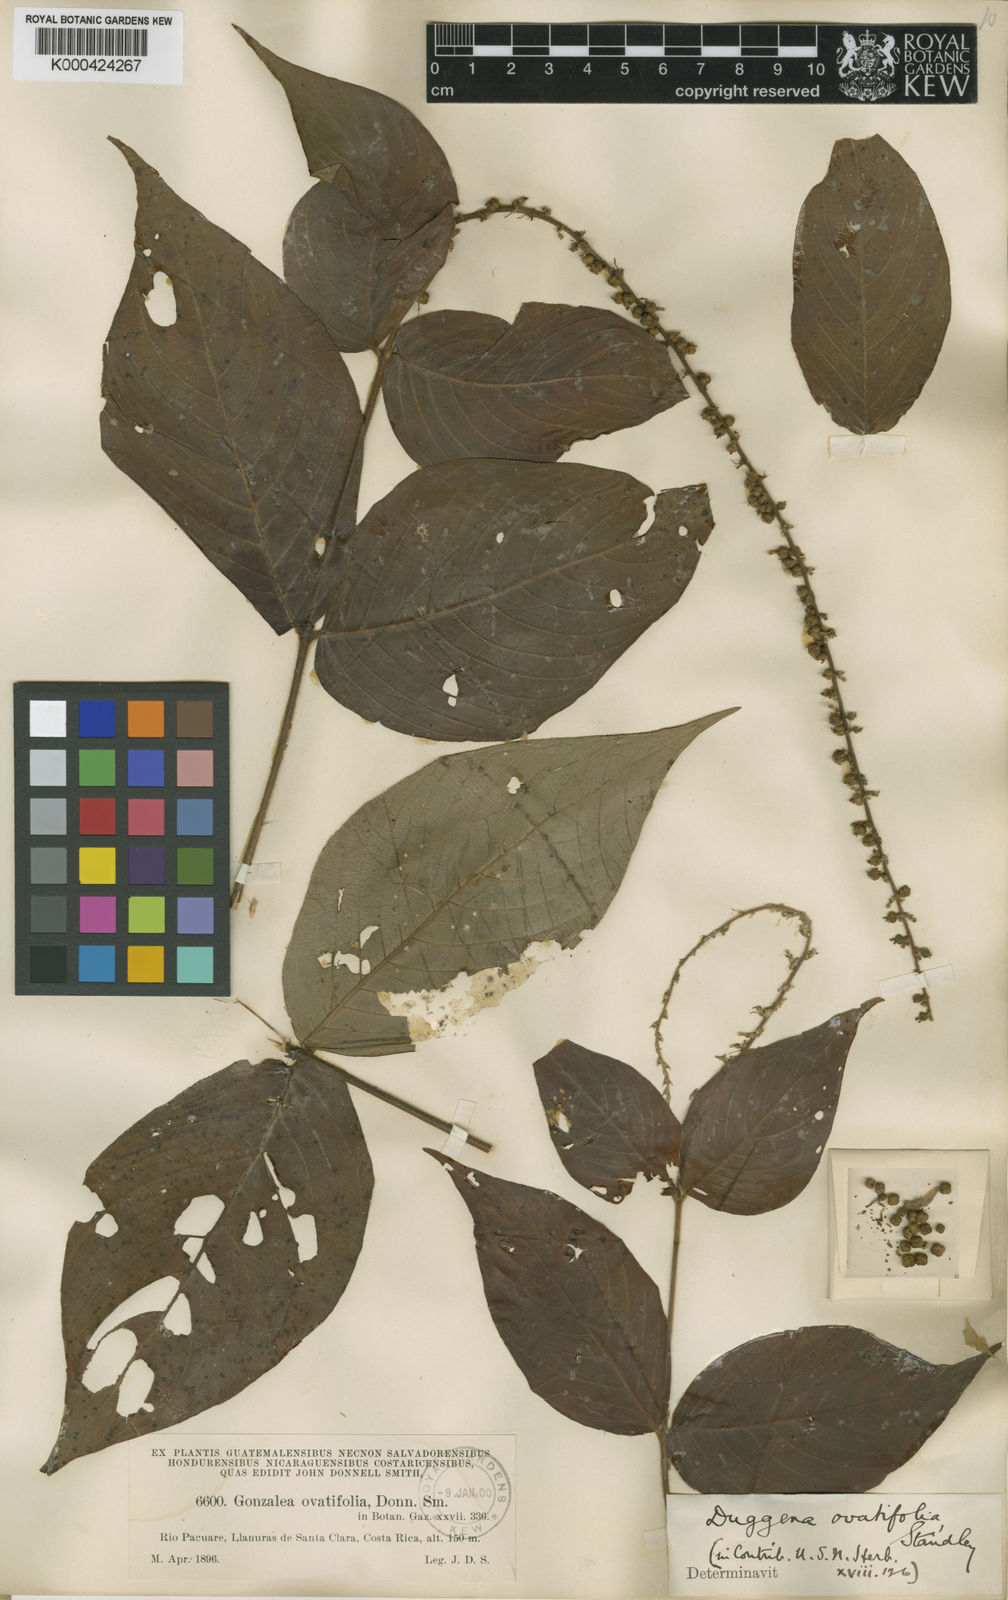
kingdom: Plantae
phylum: Tracheophyta
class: Magnoliopsida
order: Gentianales
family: Rubiaceae
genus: Gonzalagunia
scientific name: Gonzalagunia ovatifolia
